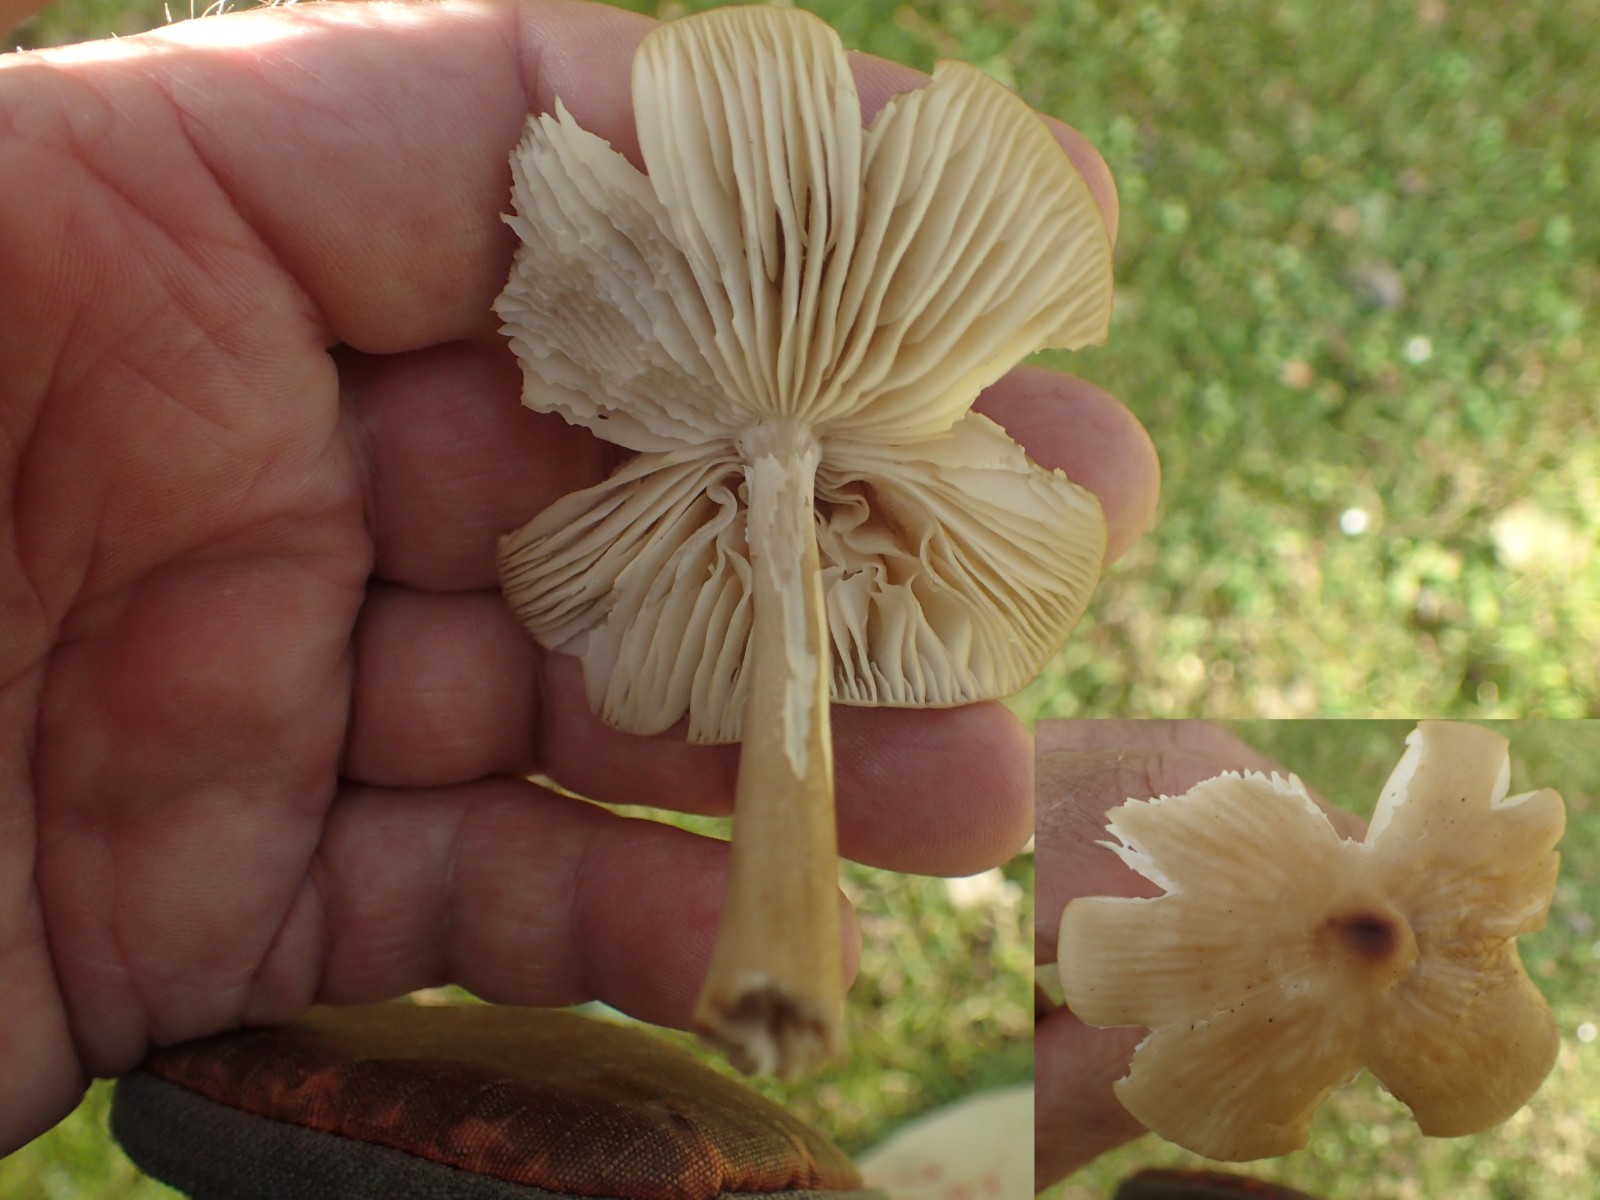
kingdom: Fungi
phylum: Basidiomycota
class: Agaricomycetes
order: Agaricales
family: Physalacriaceae
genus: Hymenopellis
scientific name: Hymenopellis radicata
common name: almindelig pælerodshat
